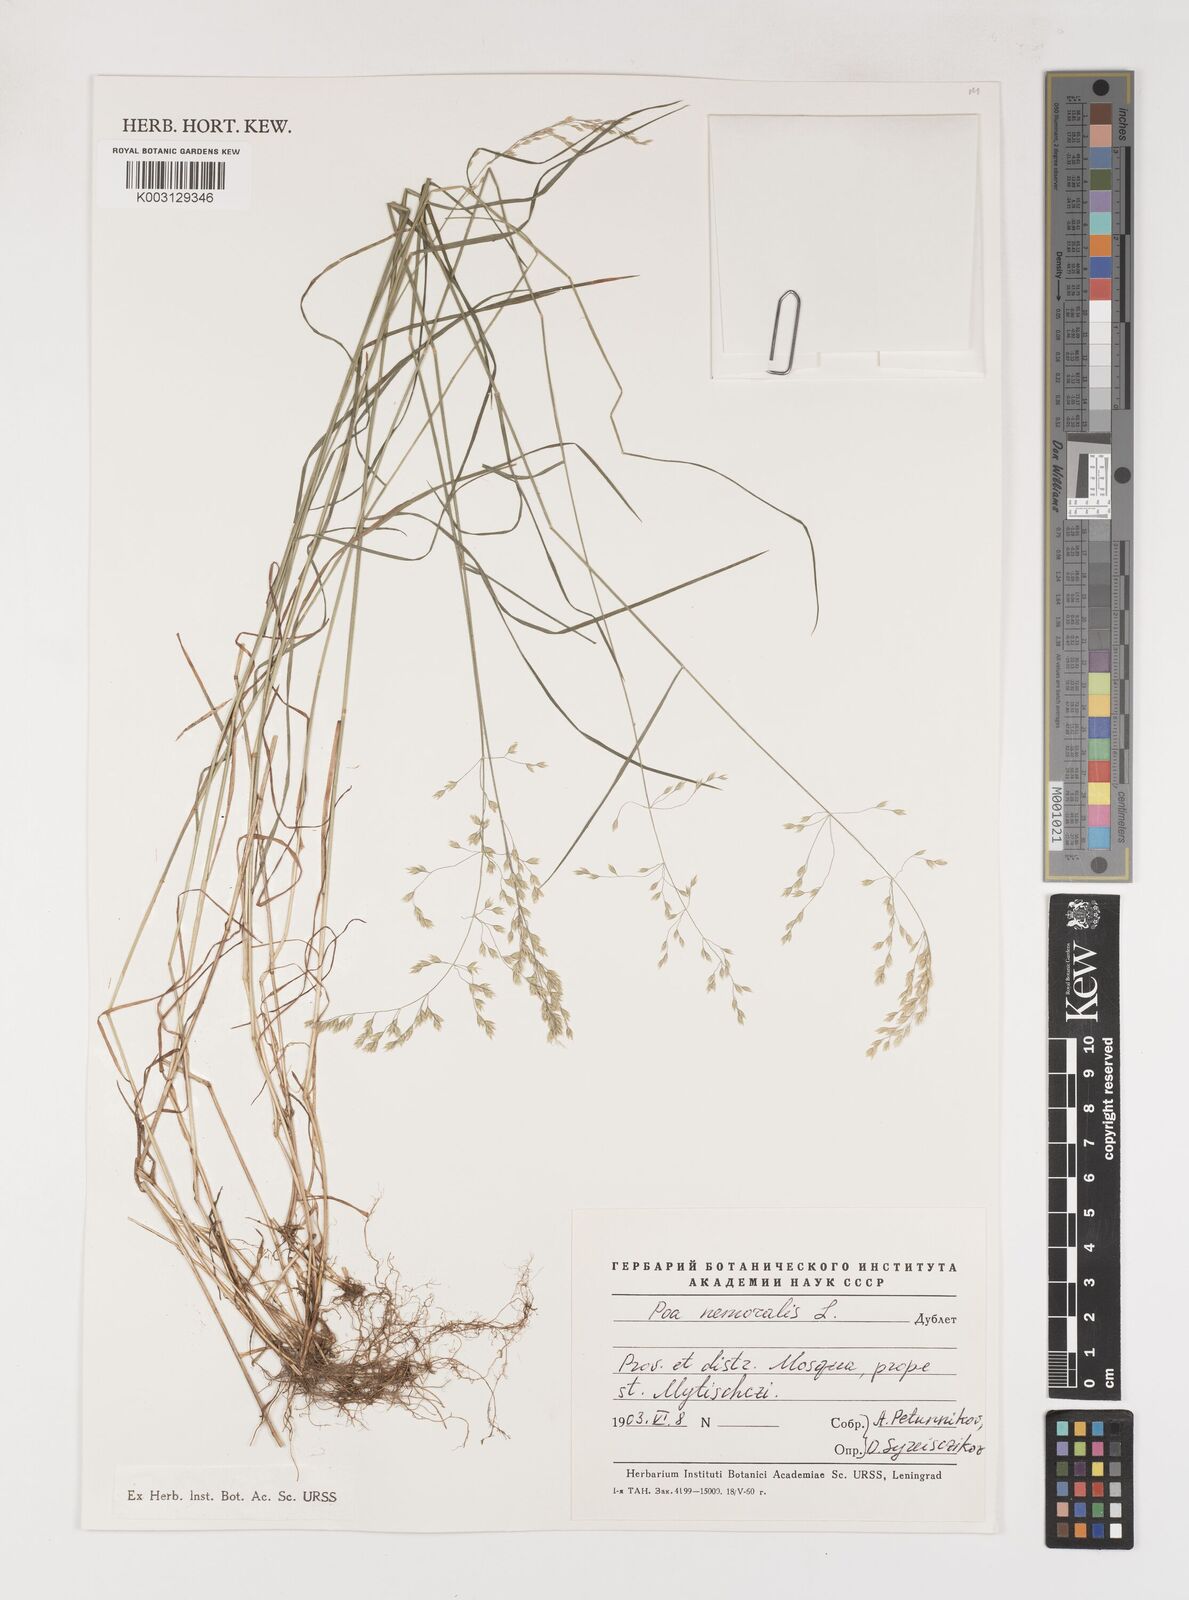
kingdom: Plantae
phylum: Tracheophyta
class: Liliopsida
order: Poales
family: Poaceae
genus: Poa
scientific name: Poa nemoralis
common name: Wood bluegrass
